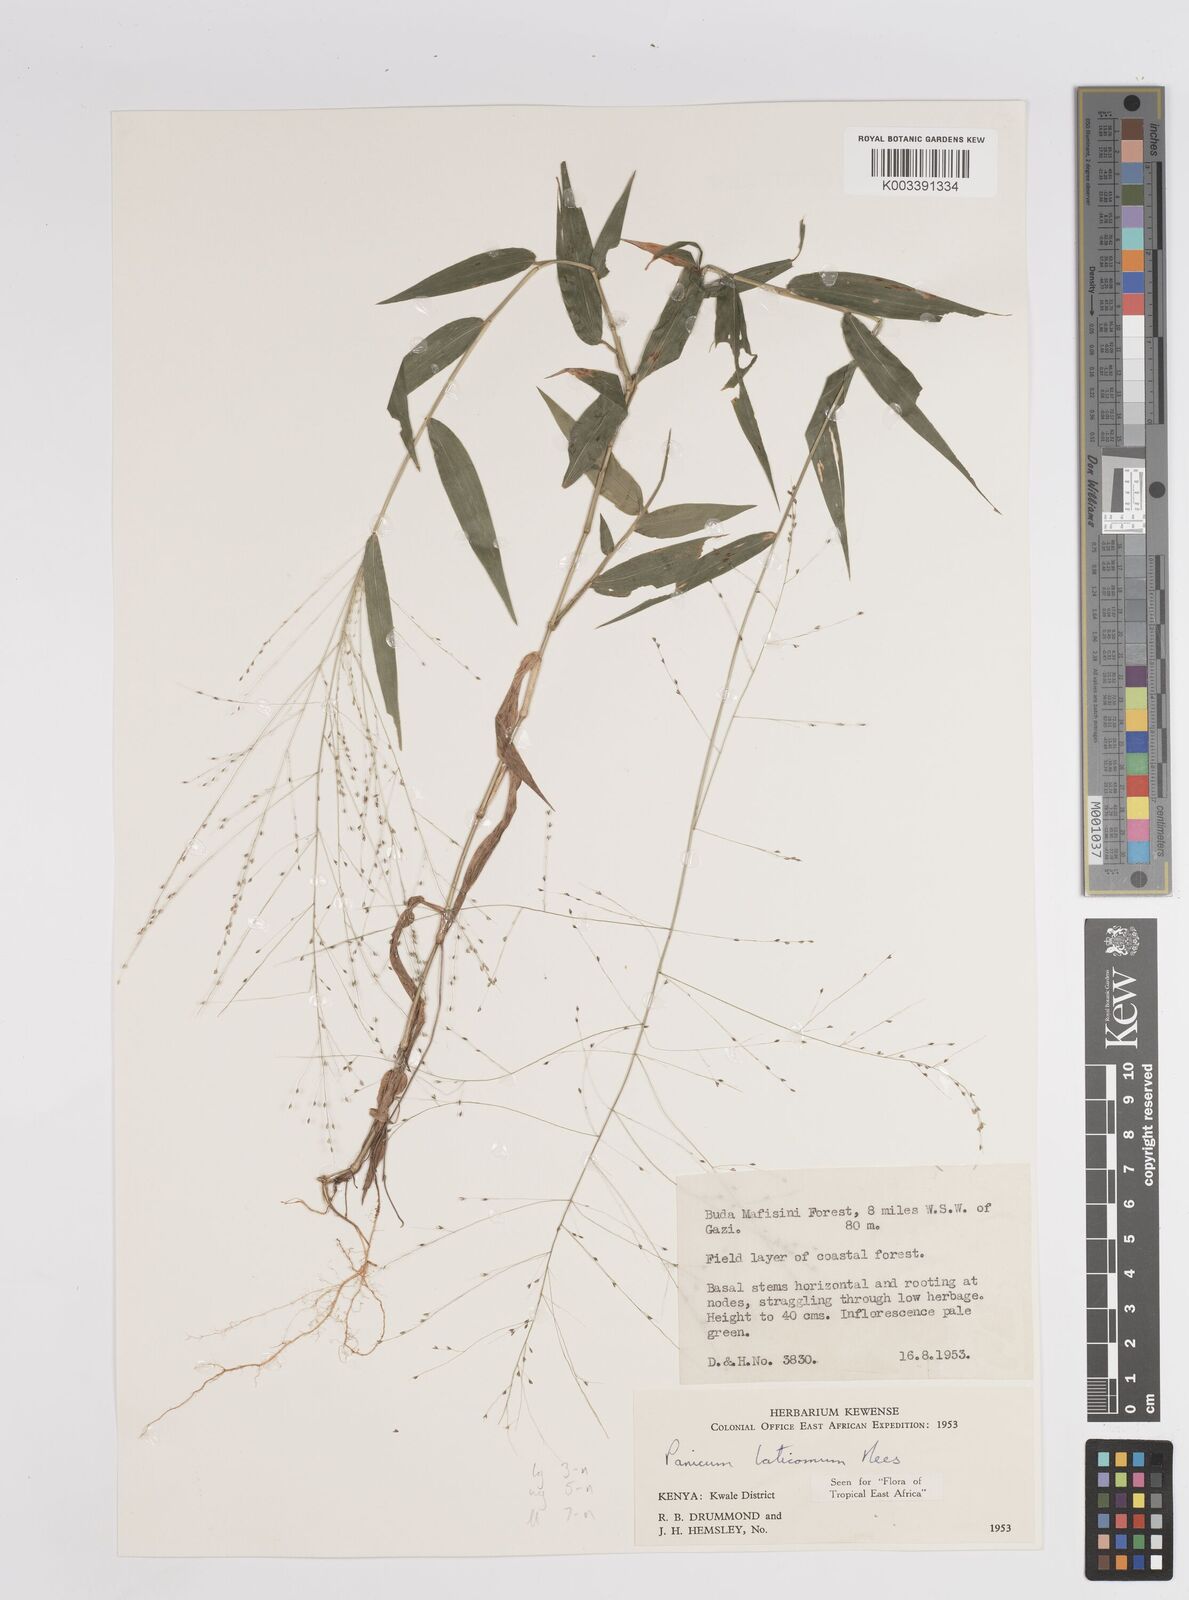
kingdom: Plantae
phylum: Tracheophyta
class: Liliopsida
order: Poales
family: Poaceae
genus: Panicum
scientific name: Panicum laticomum
